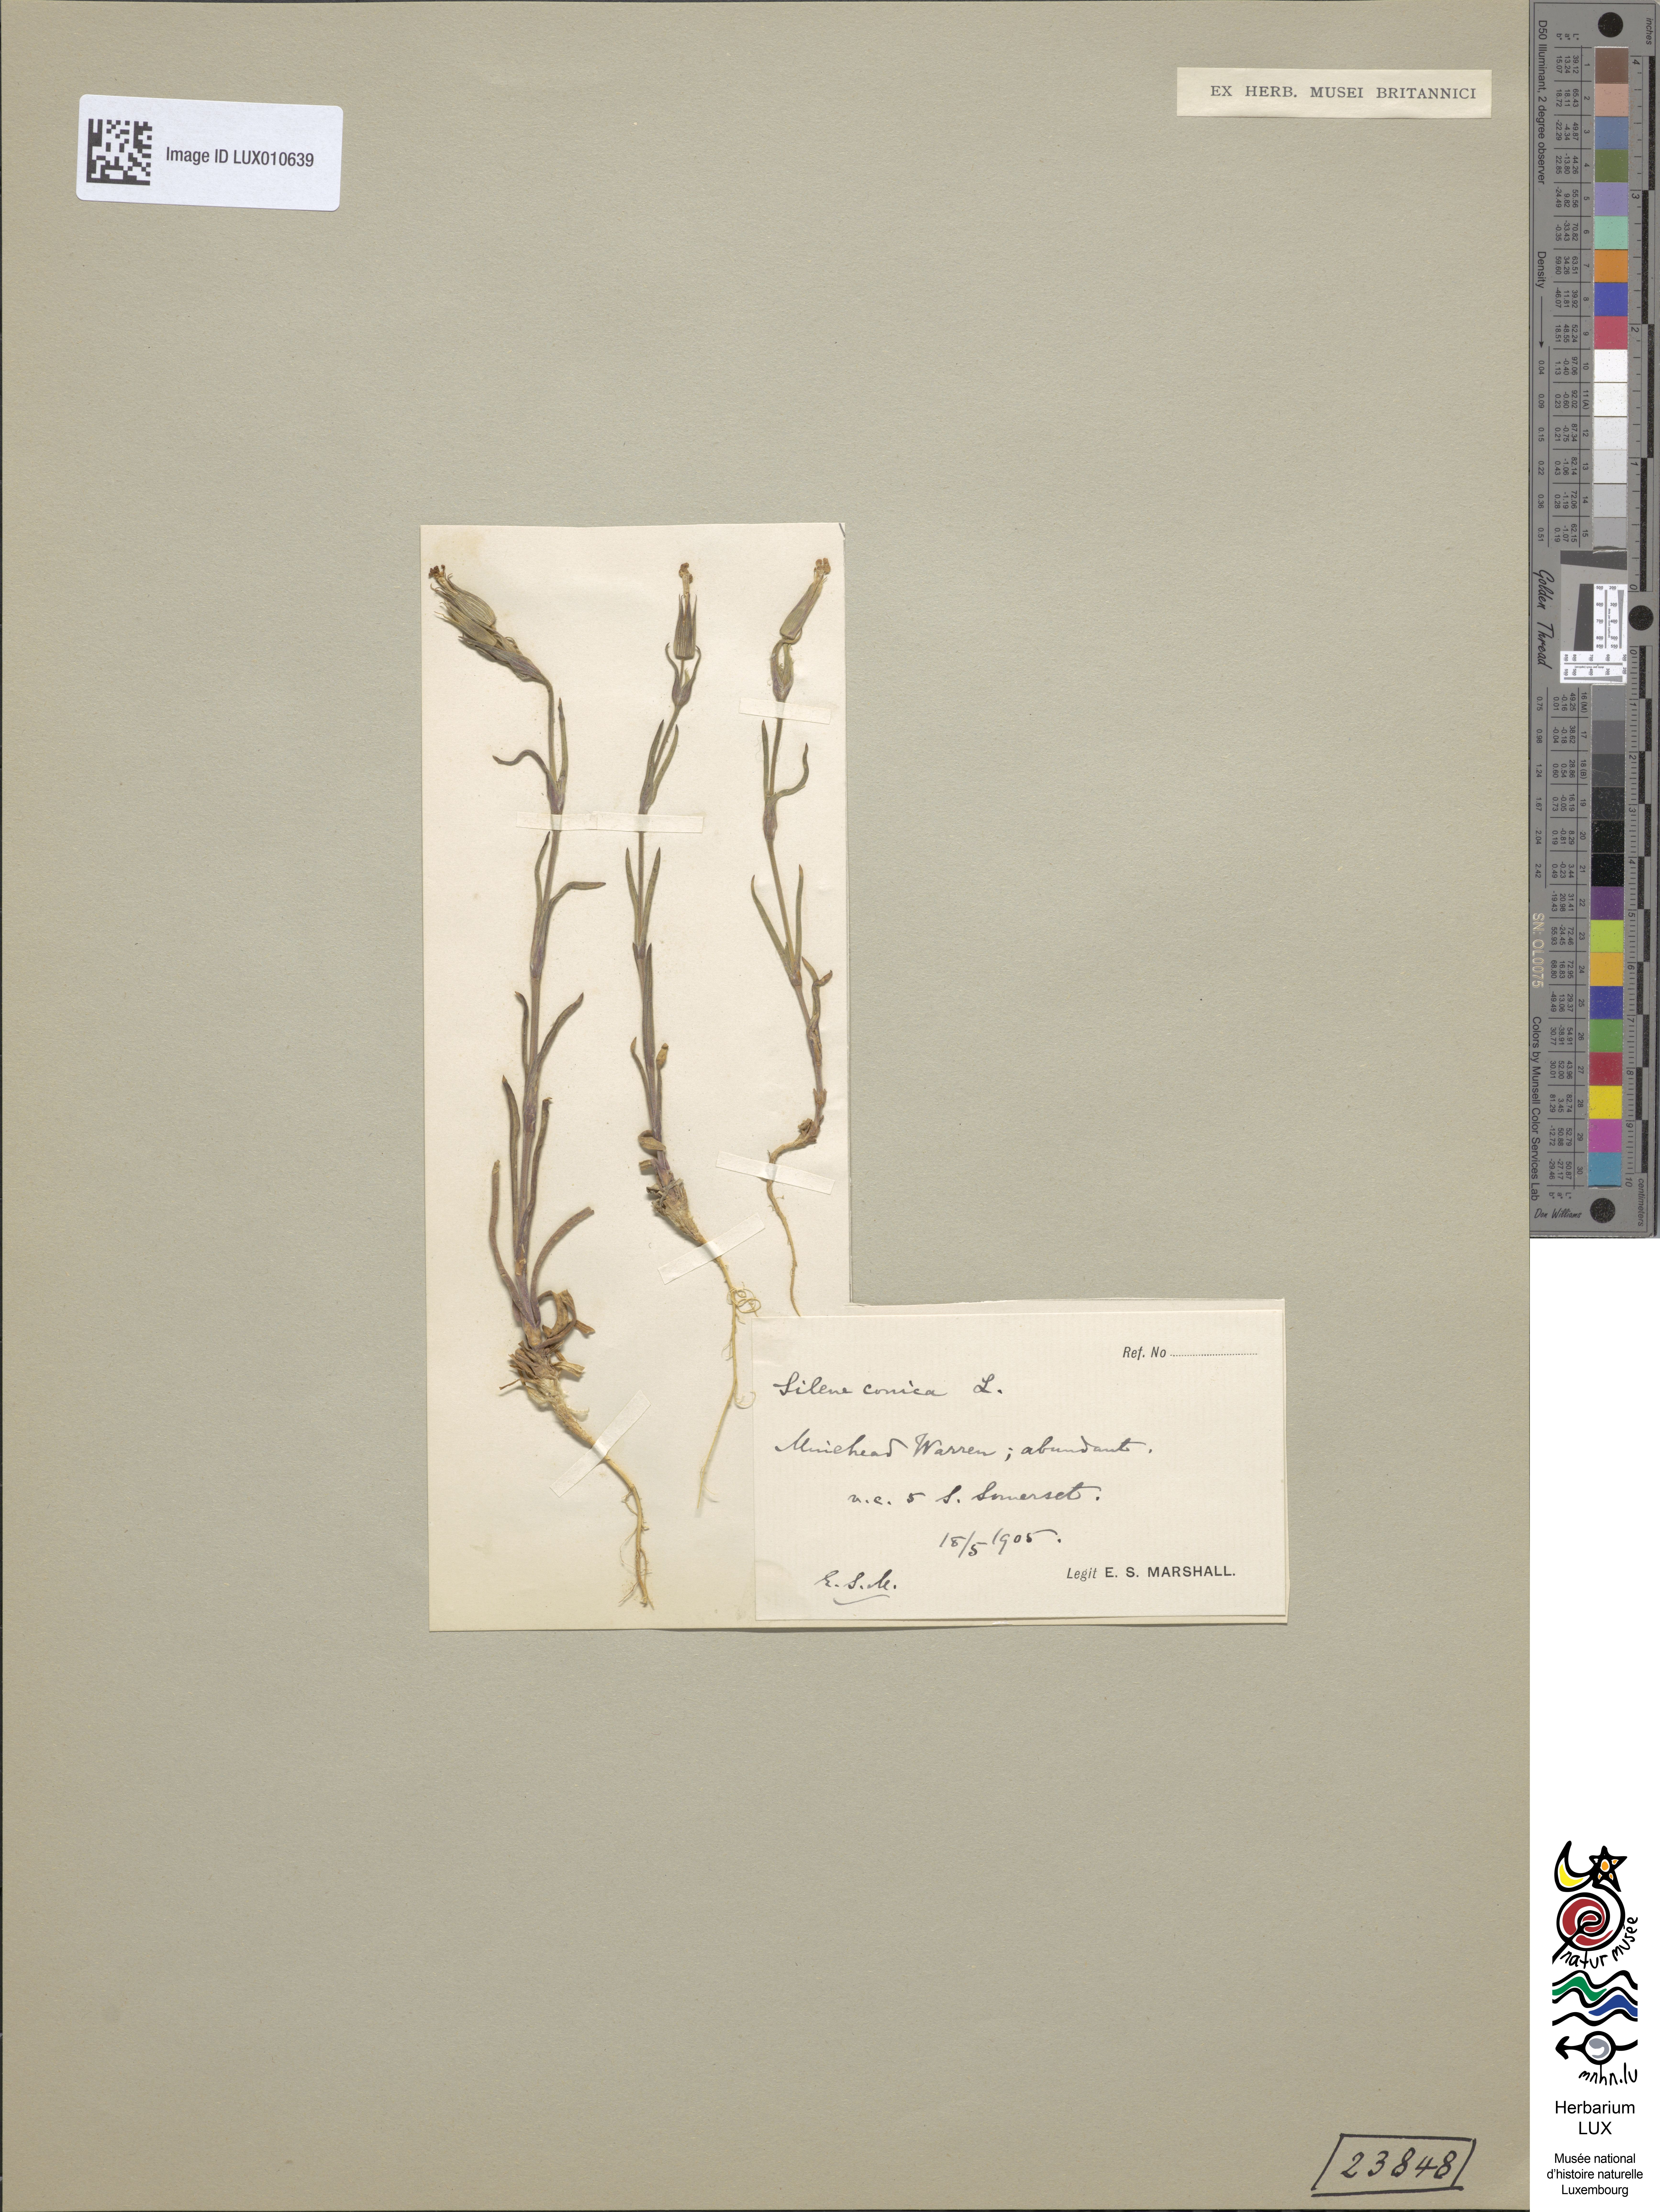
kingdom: Plantae
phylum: Tracheophyta
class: Magnoliopsida
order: Caryophyllales
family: Caryophyllaceae
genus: Silene
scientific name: Silene conica
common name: Sand catchfly
